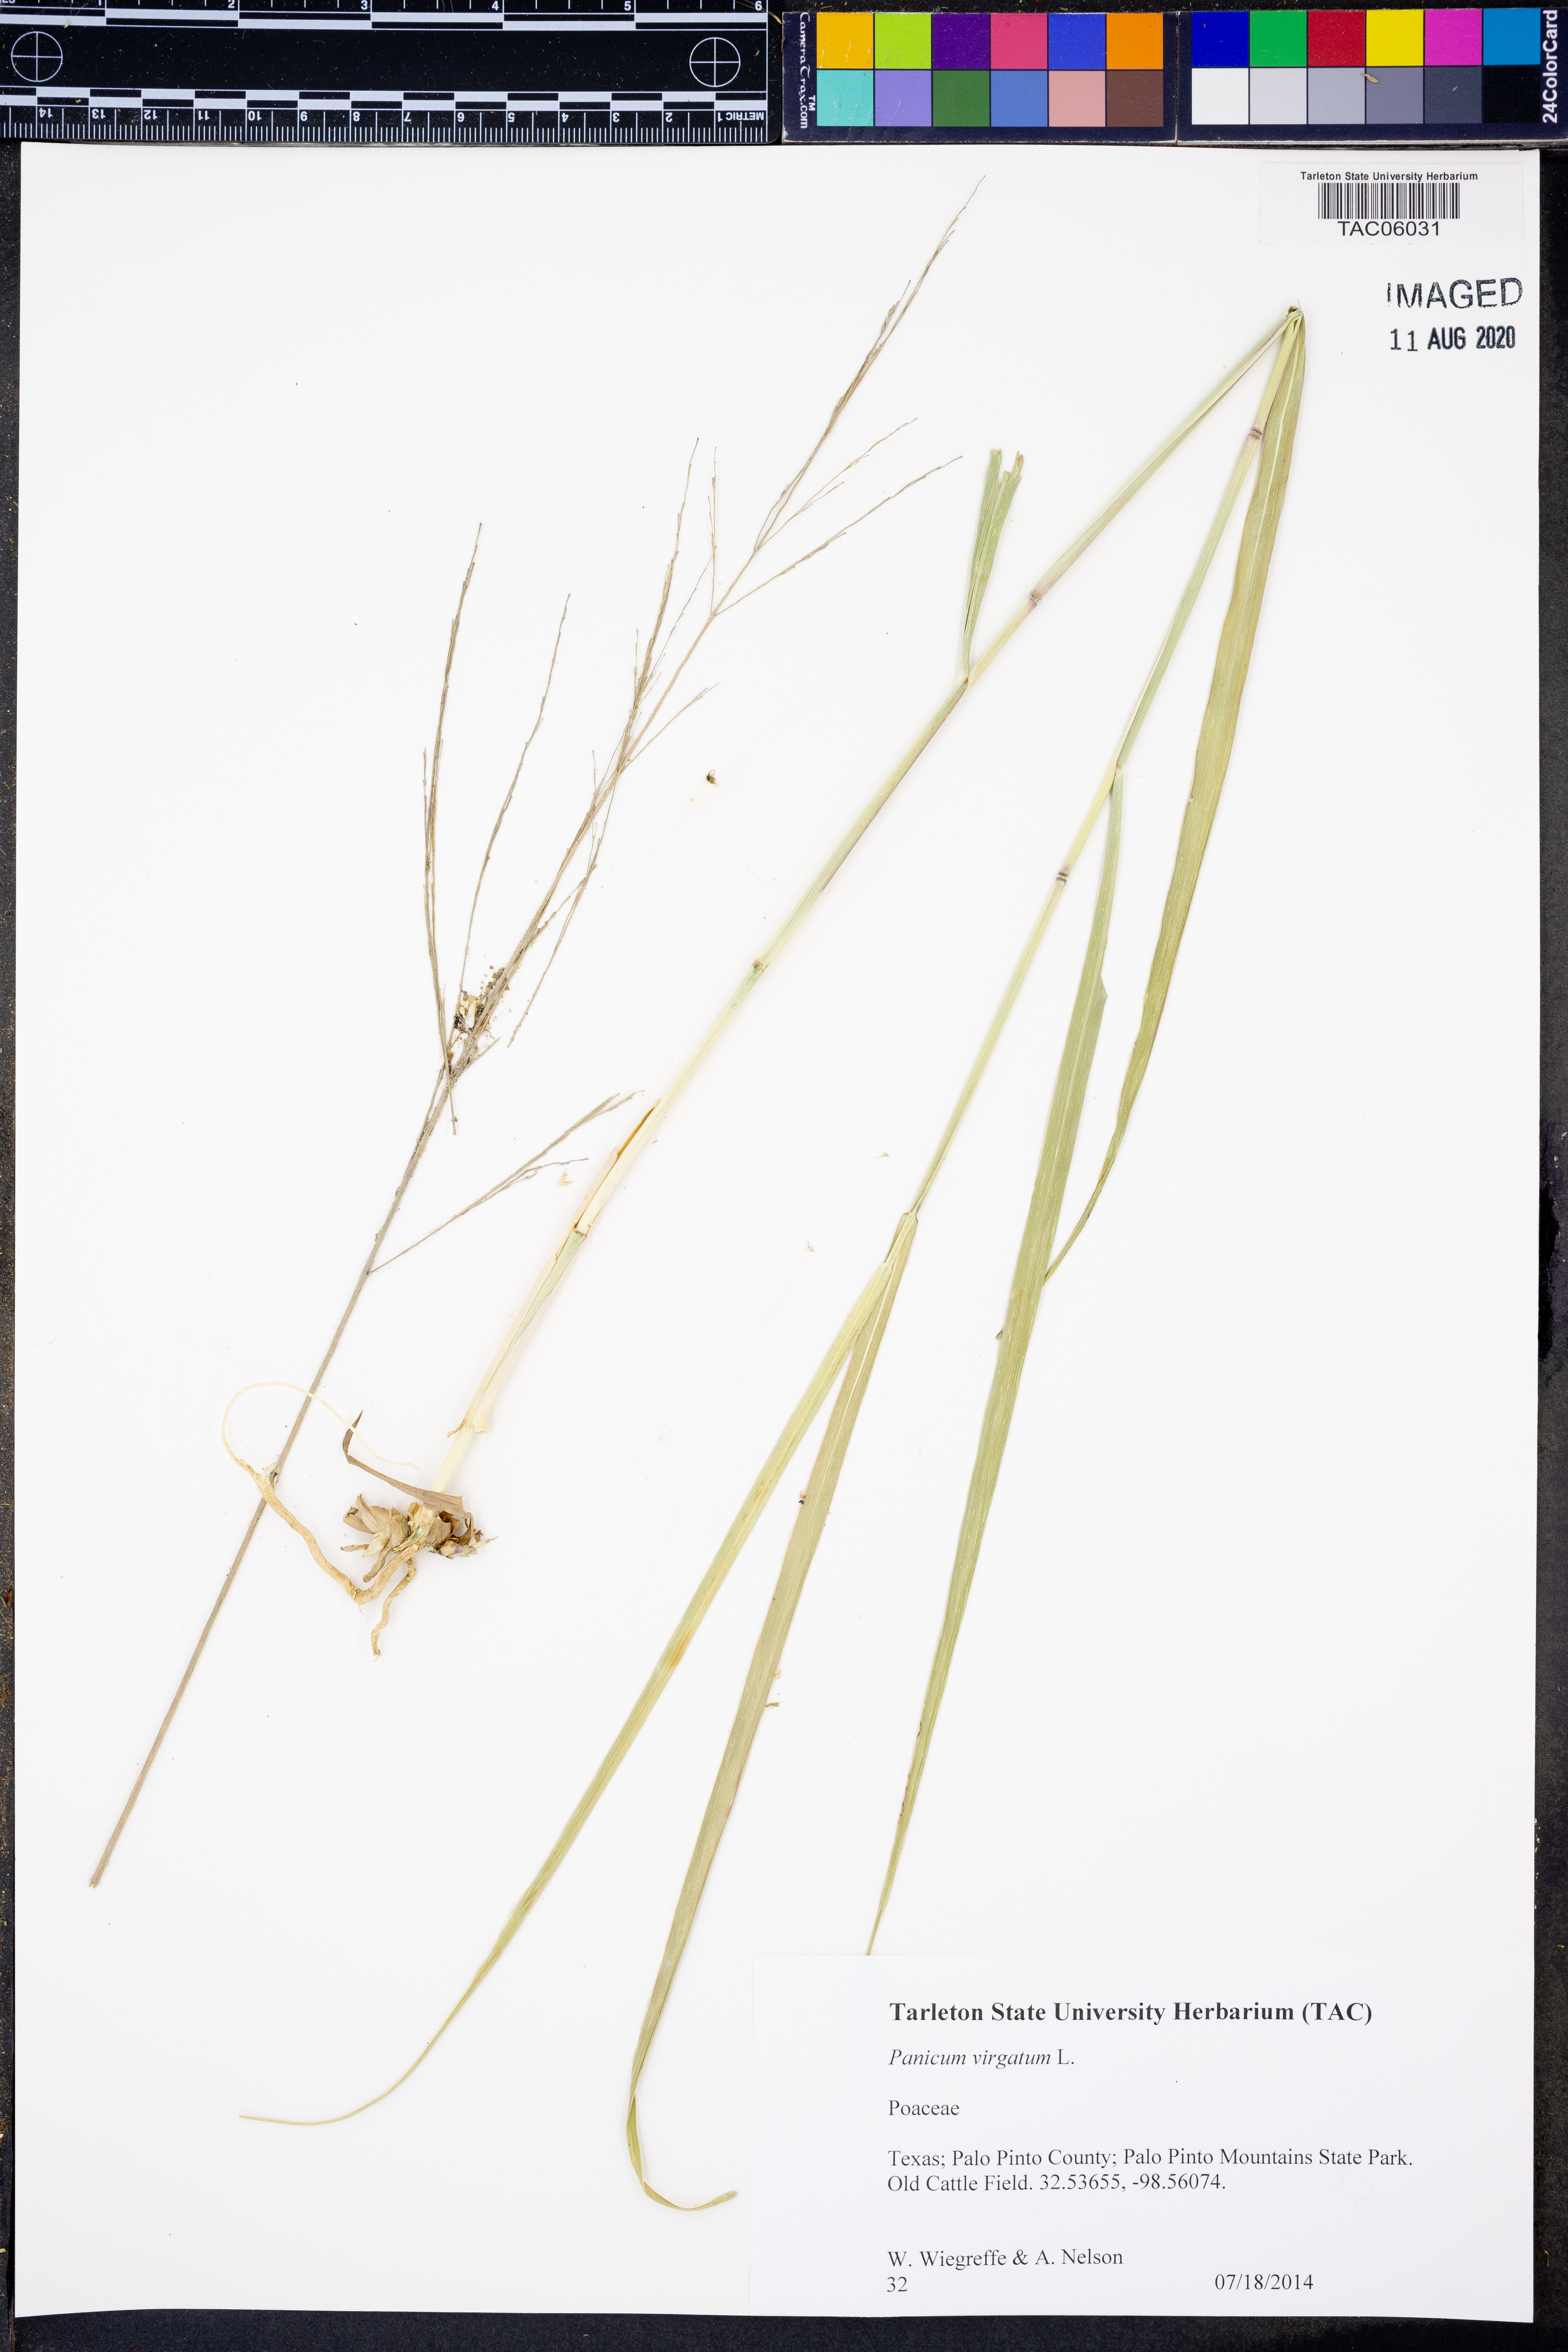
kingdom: Plantae
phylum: Tracheophyta
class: Liliopsida
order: Poales
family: Poaceae
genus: Panicum
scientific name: Panicum virgatum
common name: Switchgrass
